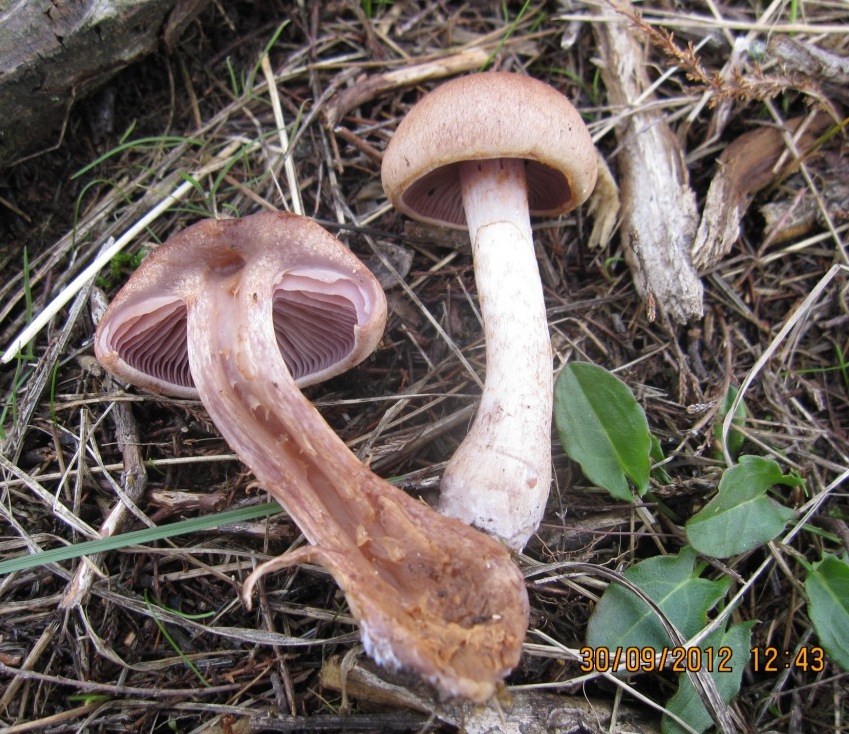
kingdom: Fungi
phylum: Basidiomycota
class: Agaricomycetes
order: Agaricales
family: Cortinariaceae
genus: Cortinarius
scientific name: Cortinarius caninus
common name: gran-slørhat
